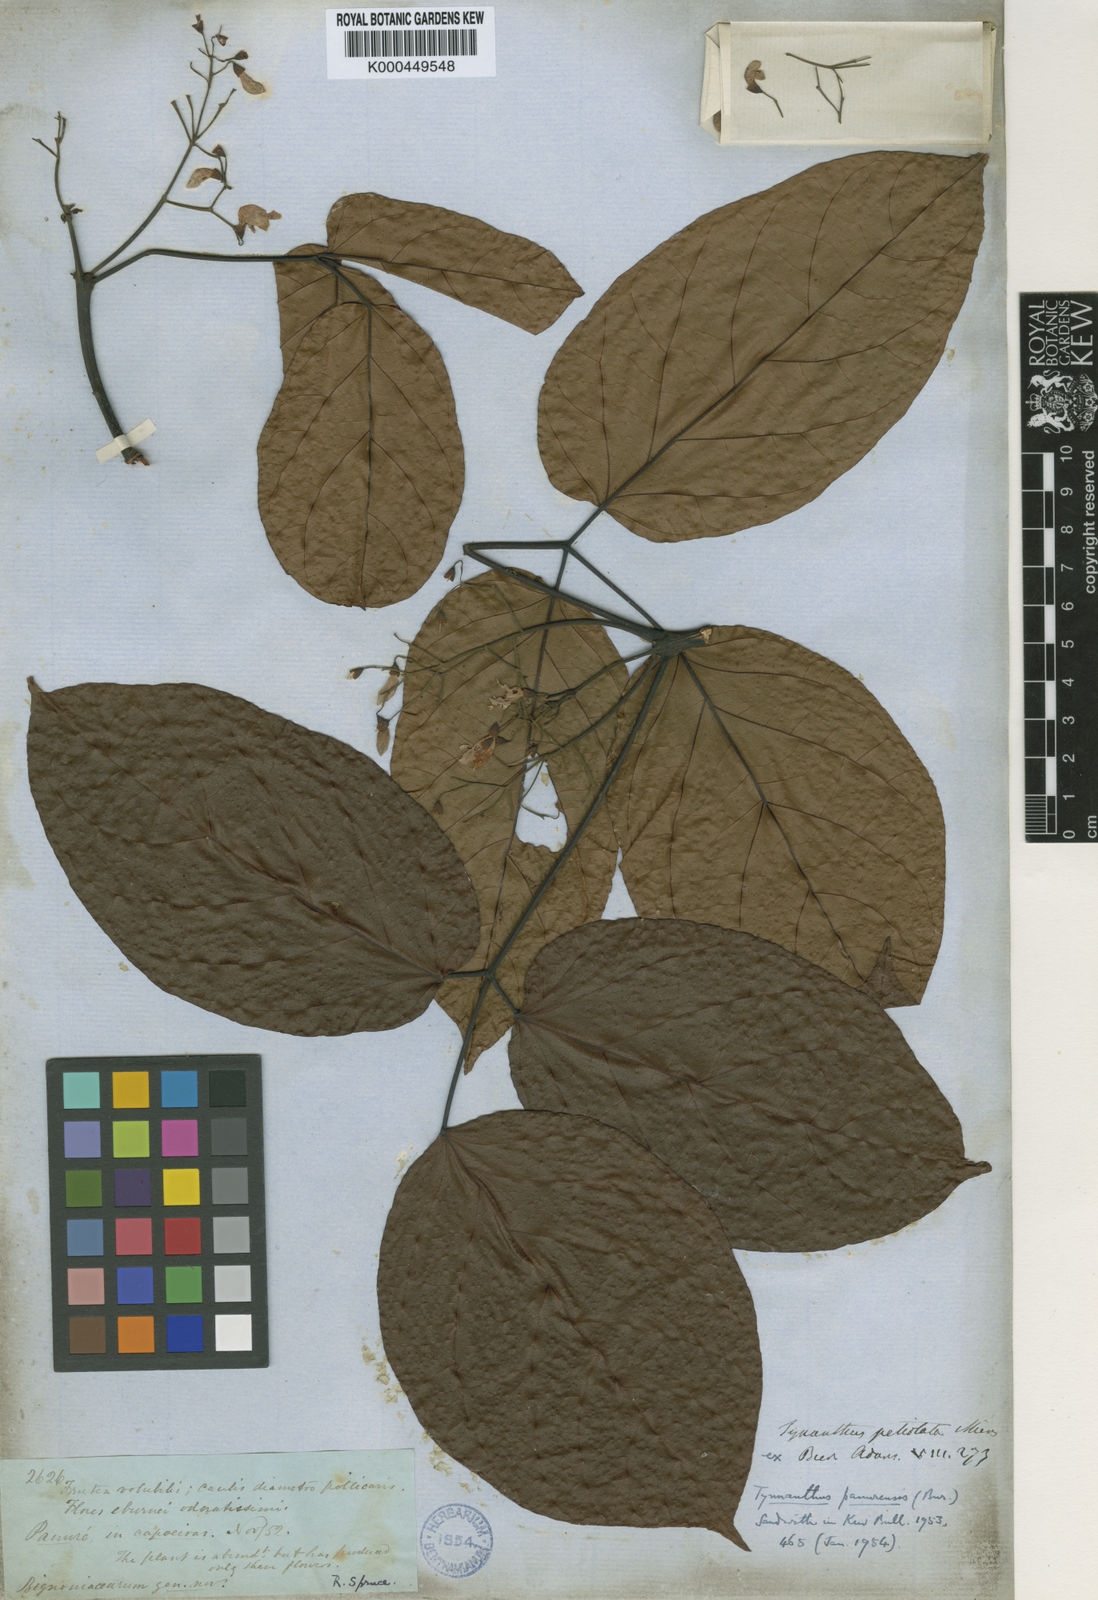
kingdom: Plantae
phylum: Tracheophyta
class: Magnoliopsida
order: Lamiales
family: Bignoniaceae
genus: Tynanthus
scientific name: Tynanthus panurensis
